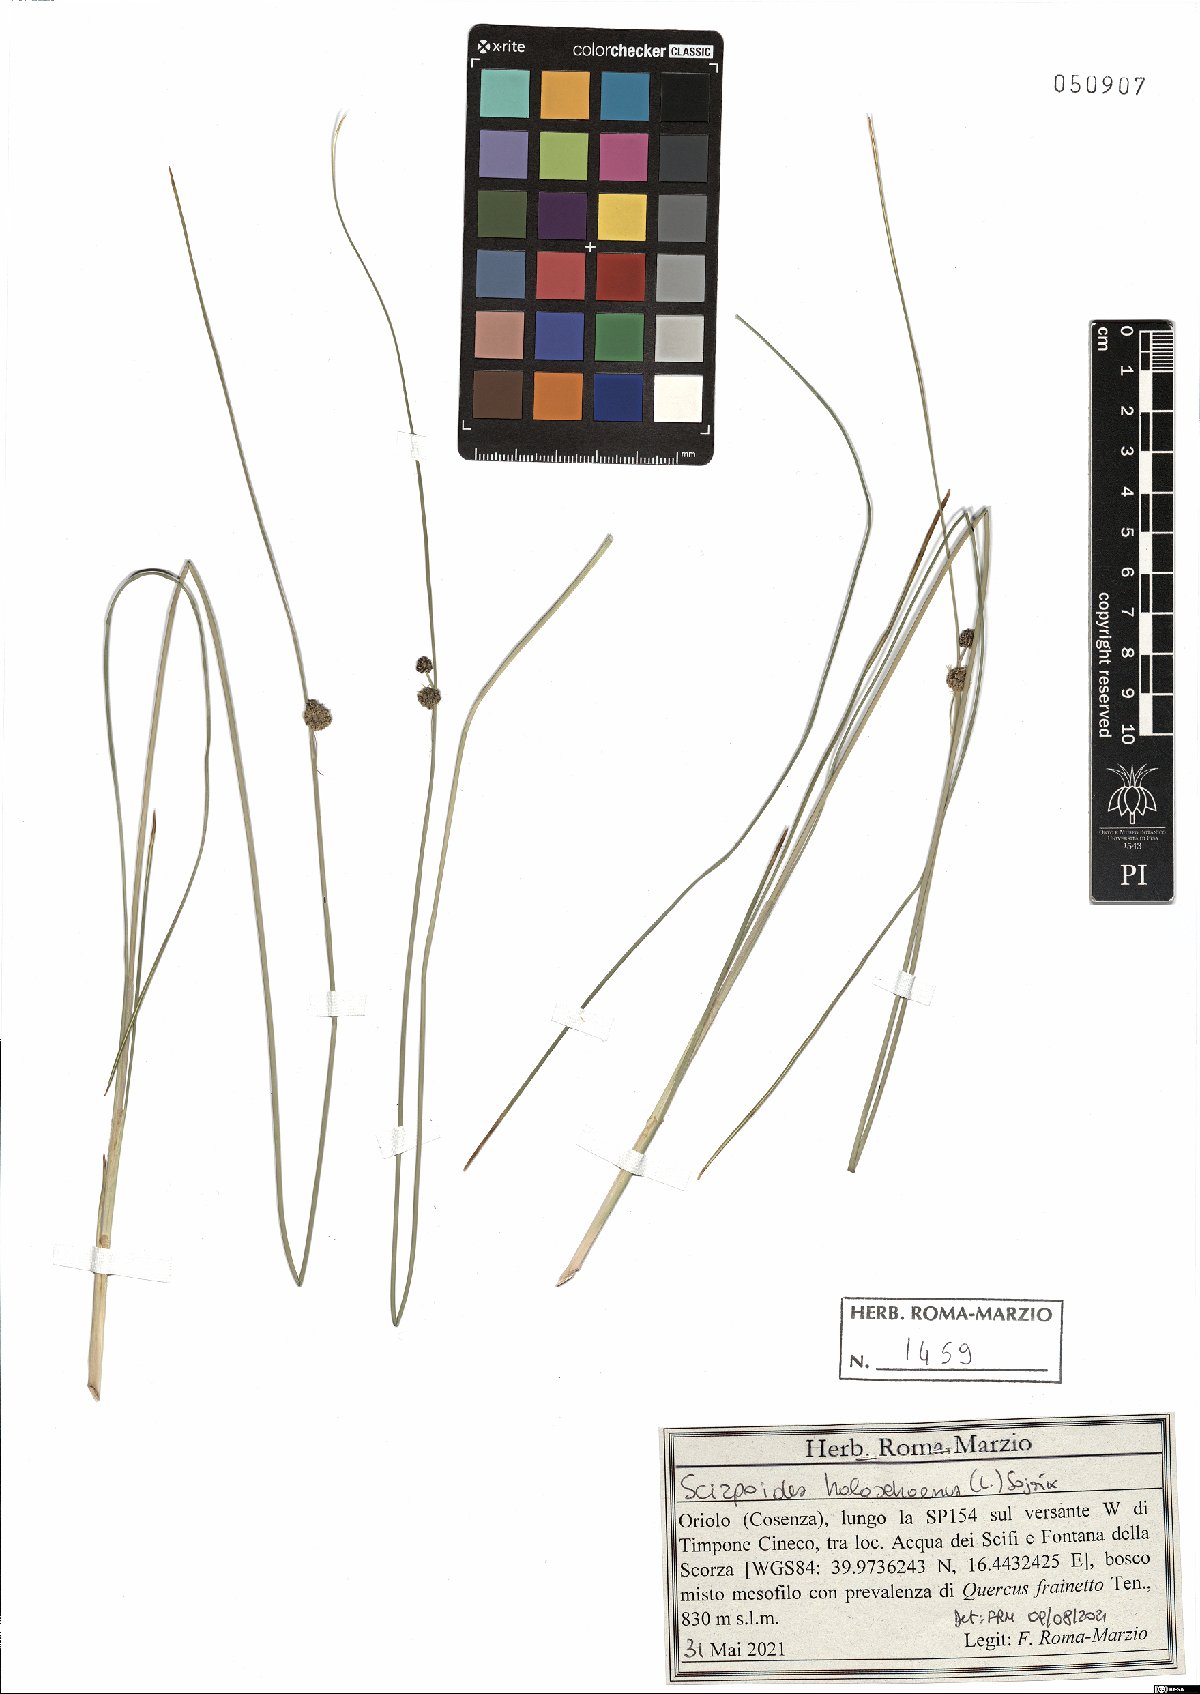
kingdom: Plantae
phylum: Tracheophyta
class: Liliopsida
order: Poales
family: Cyperaceae
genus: Scirpoides
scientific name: Scirpoides holoschoenus
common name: Round-headed club-rush
